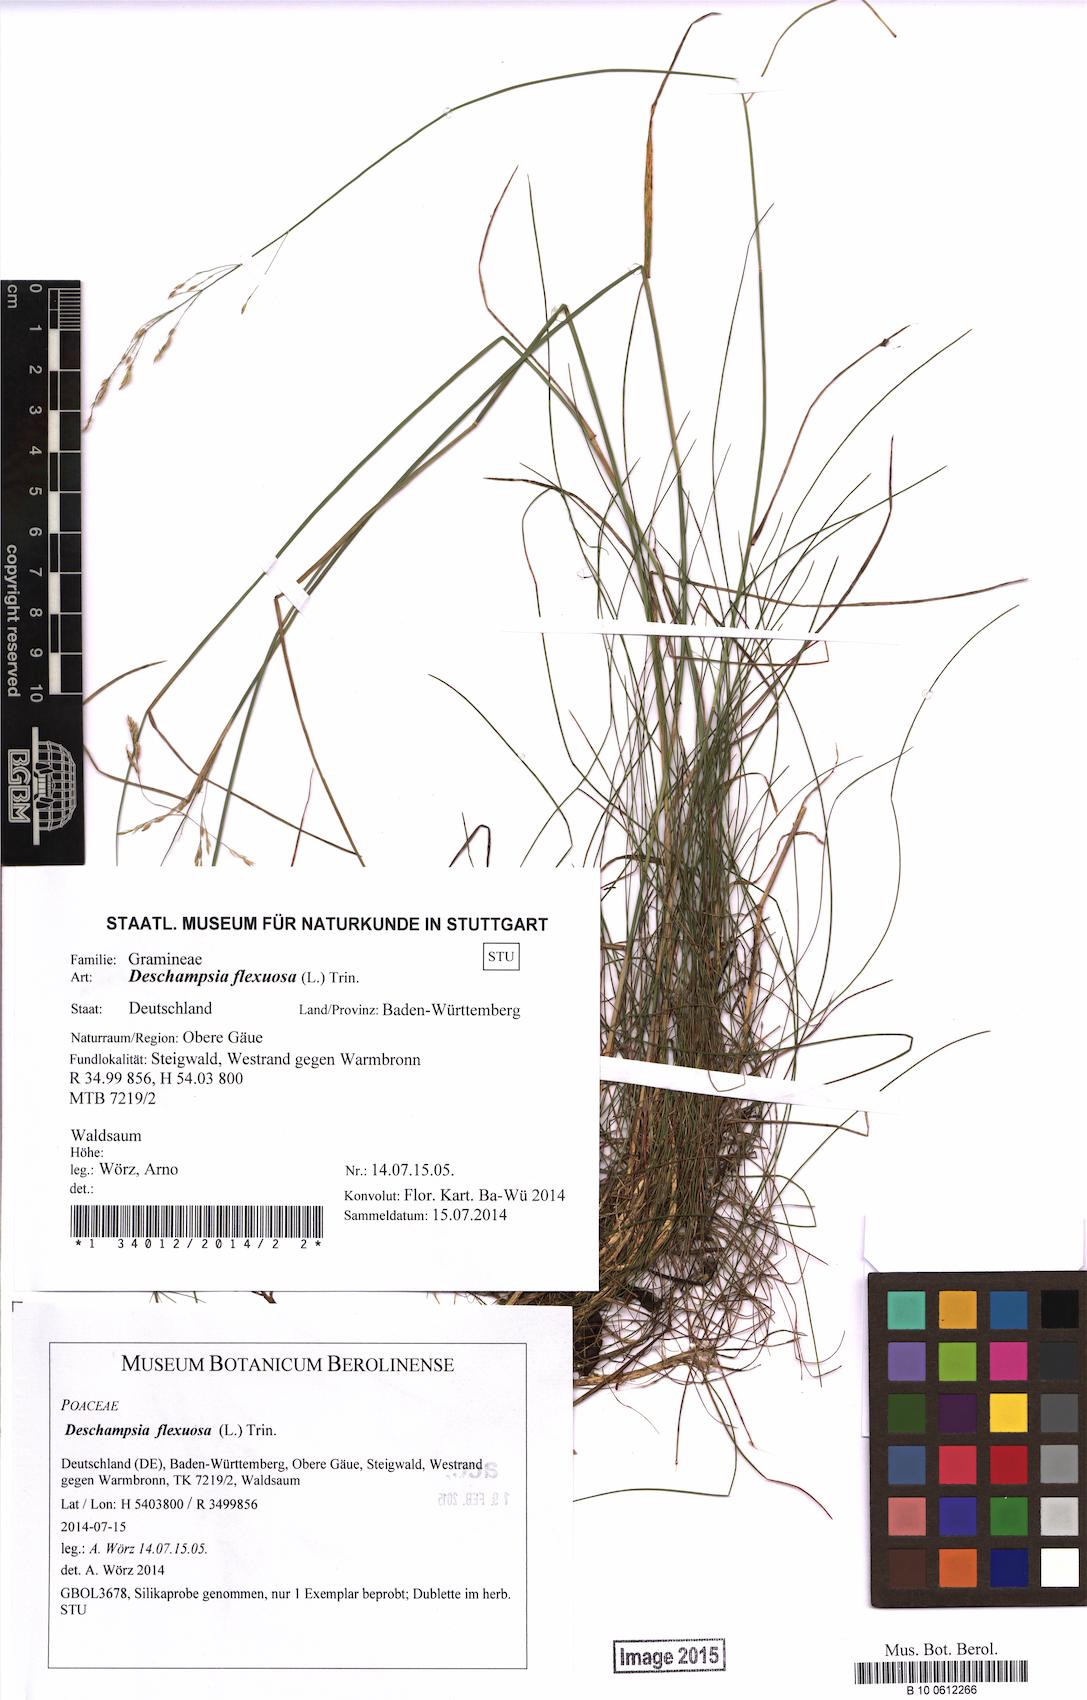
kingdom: Plantae
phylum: Tracheophyta
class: Liliopsida
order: Poales
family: Poaceae
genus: Avenella
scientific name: Avenella flexuosa
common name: Wavy hairgrass
